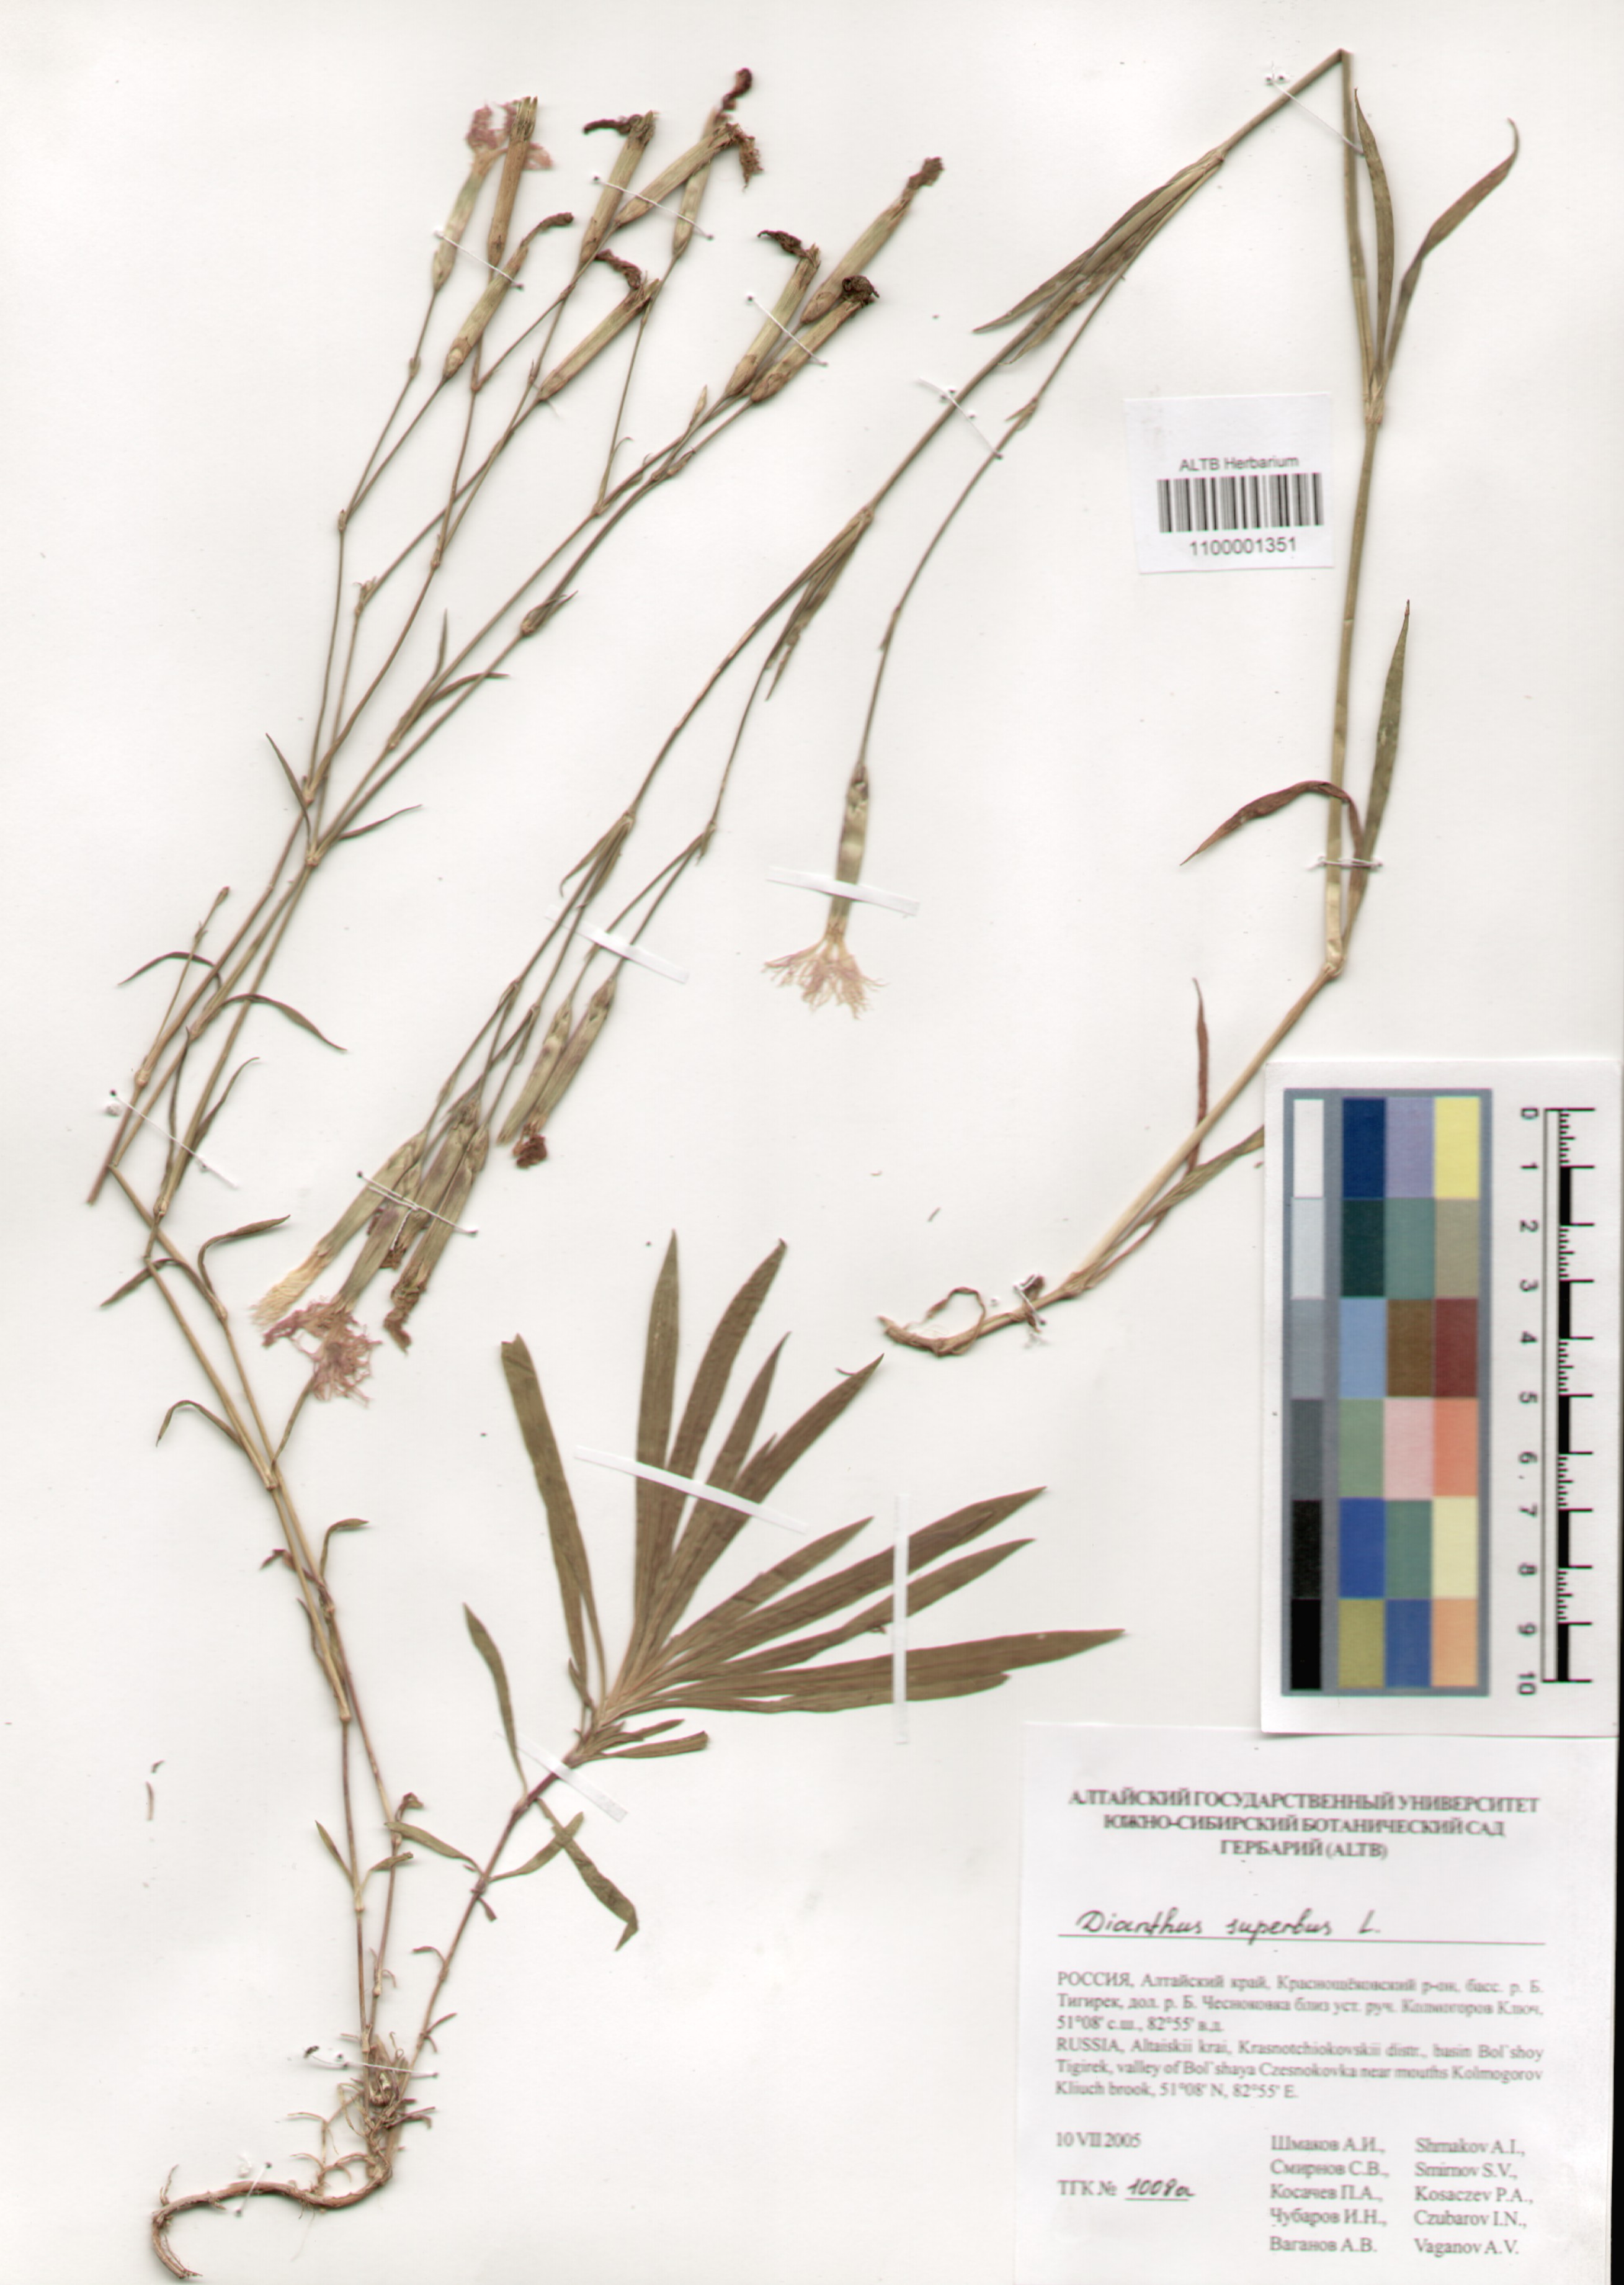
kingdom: Plantae
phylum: Tracheophyta
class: Magnoliopsida
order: Caryophyllales
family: Caryophyllaceae
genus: Dianthus
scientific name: Dianthus superbus
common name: Fringed pink
